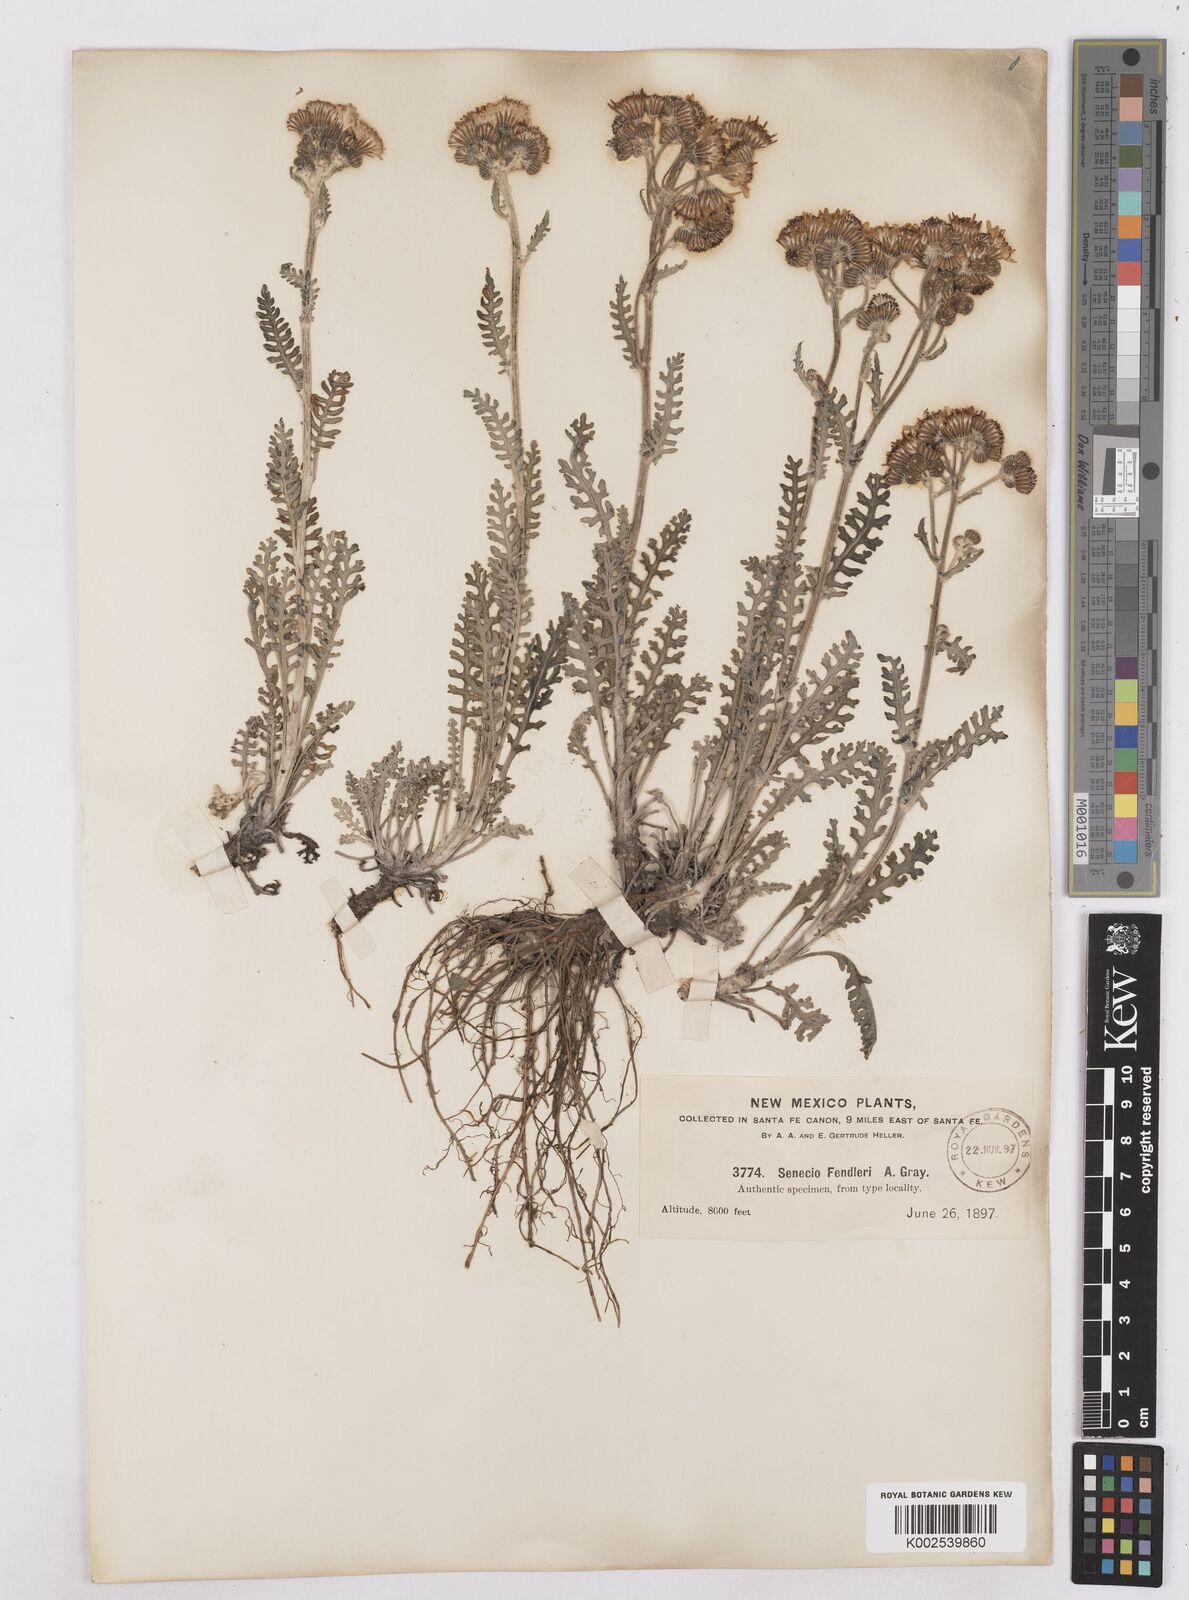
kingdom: Plantae
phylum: Tracheophyta
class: Magnoliopsida
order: Asterales
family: Asteraceae
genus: Packera
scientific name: Packera fendleri
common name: Notch-leaf butterweed
